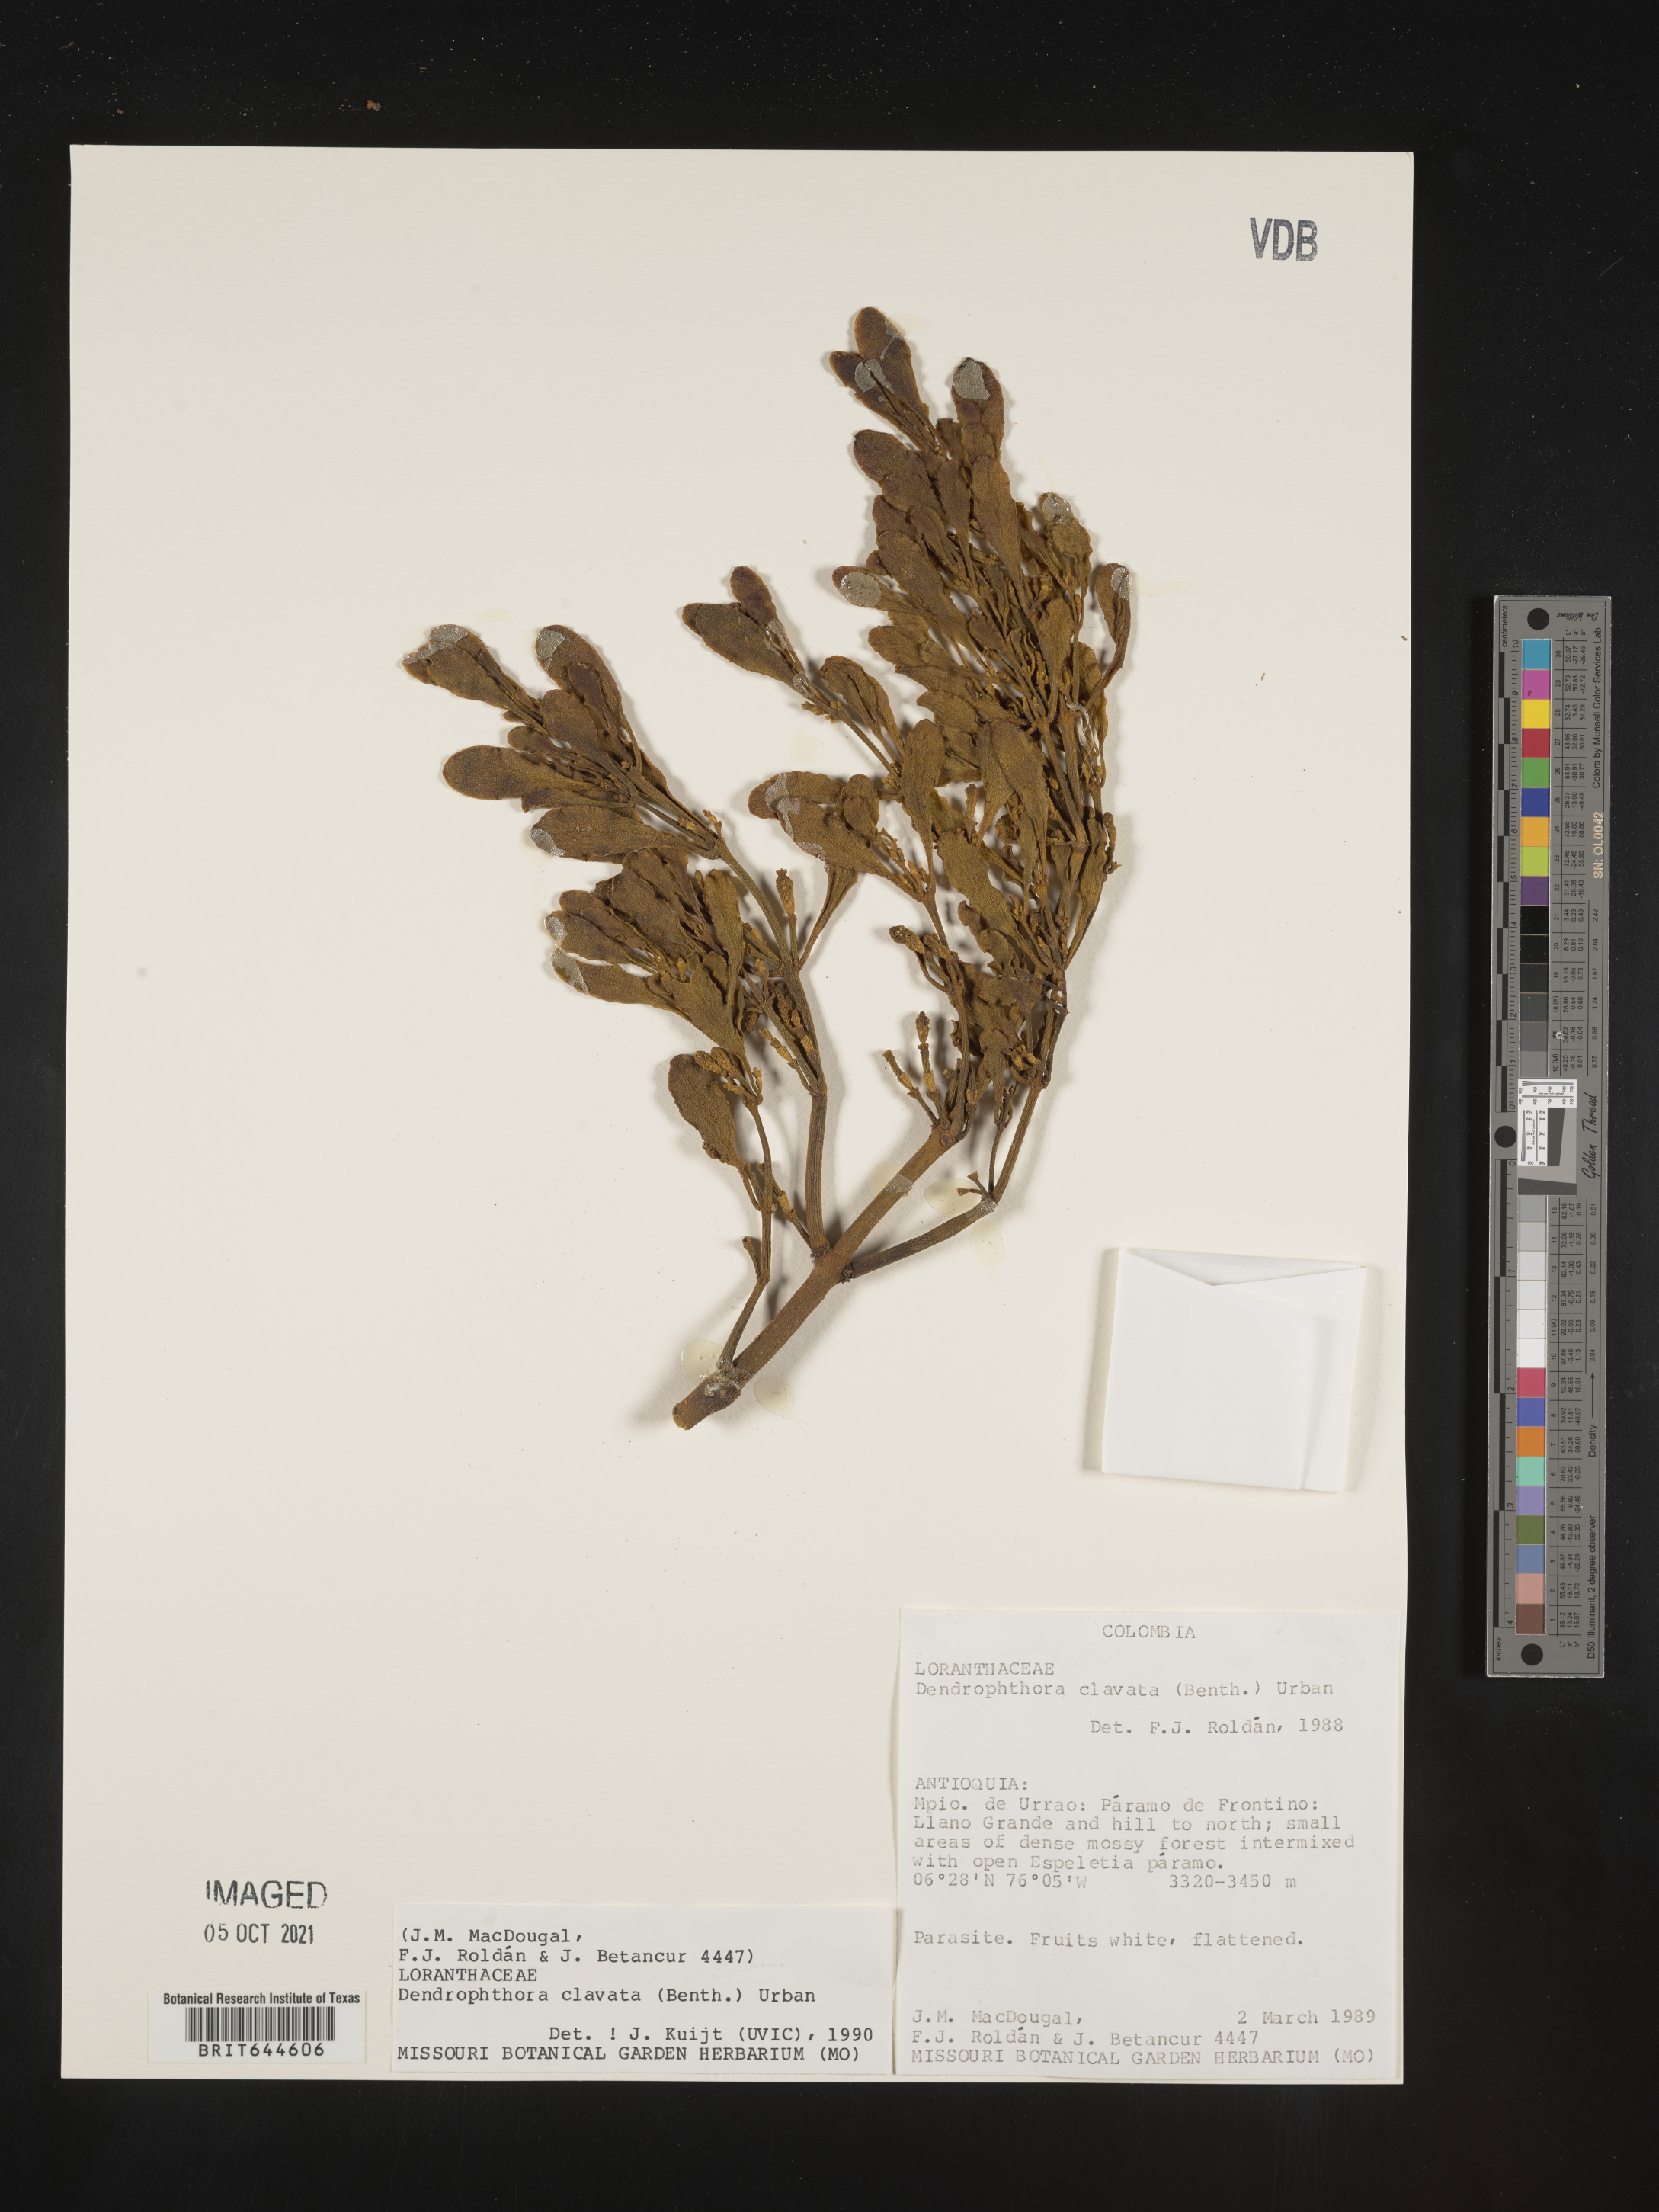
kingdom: Plantae
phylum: Tracheophyta
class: Magnoliopsida
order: Santalales
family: Viscaceae
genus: Dendrophthora
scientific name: Dendrophthora
